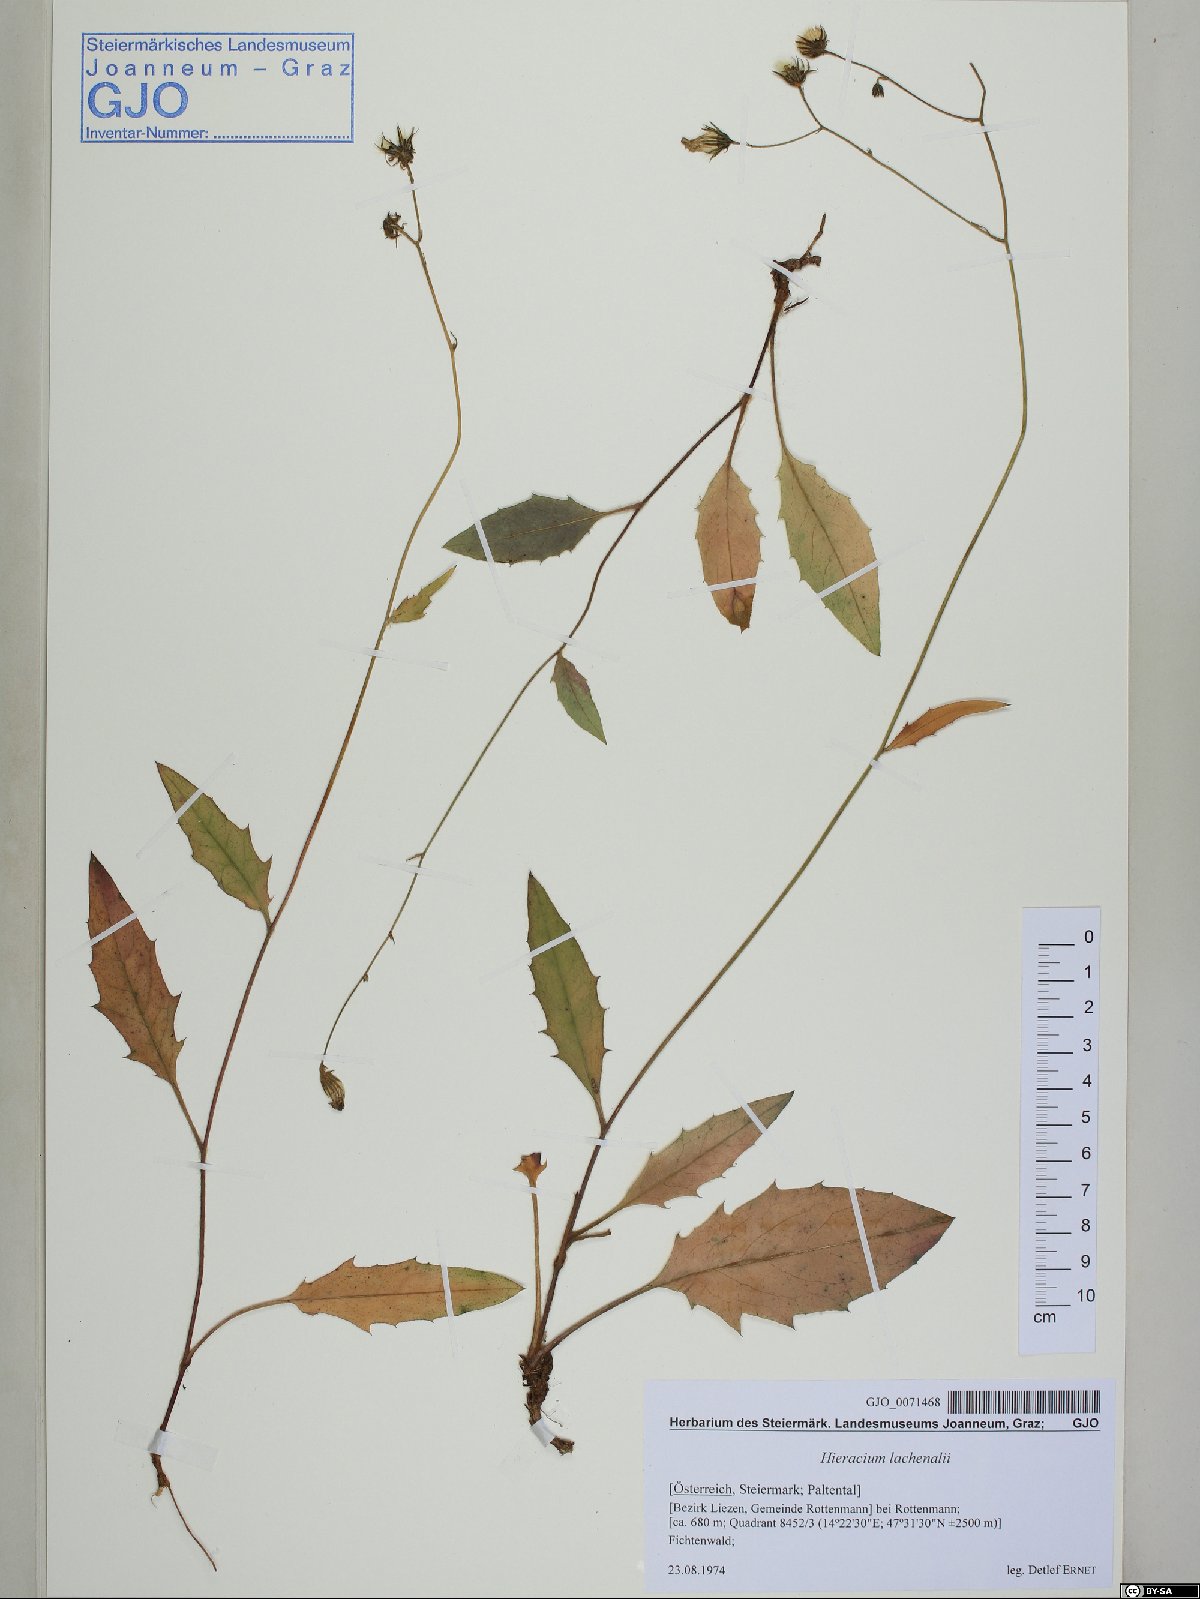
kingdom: Plantae
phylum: Tracheophyta
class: Magnoliopsida
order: Asterales
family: Asteraceae
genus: Hieracium
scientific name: Hieracium lachenalii
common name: Common hawkweed
